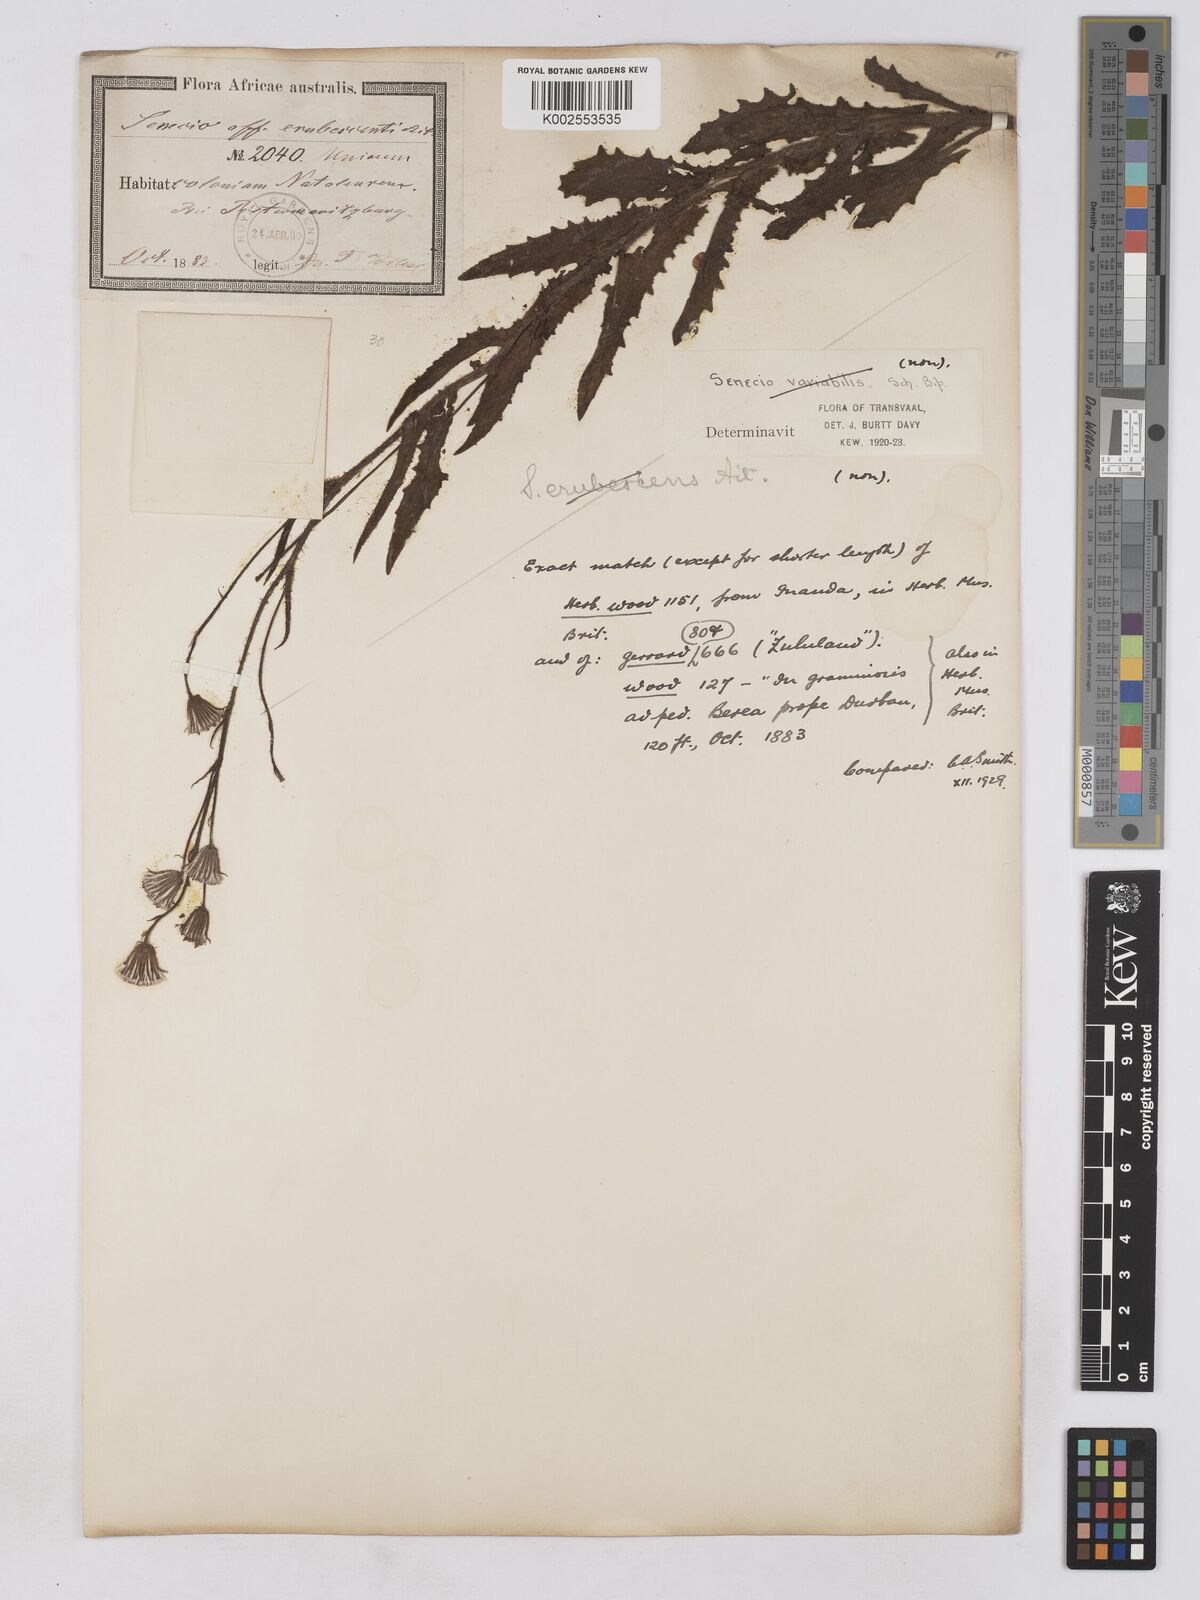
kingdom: Plantae
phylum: Tracheophyta
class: Magnoliopsida
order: Asterales
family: Asteraceae
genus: Senecio
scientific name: Senecio sandersonii
